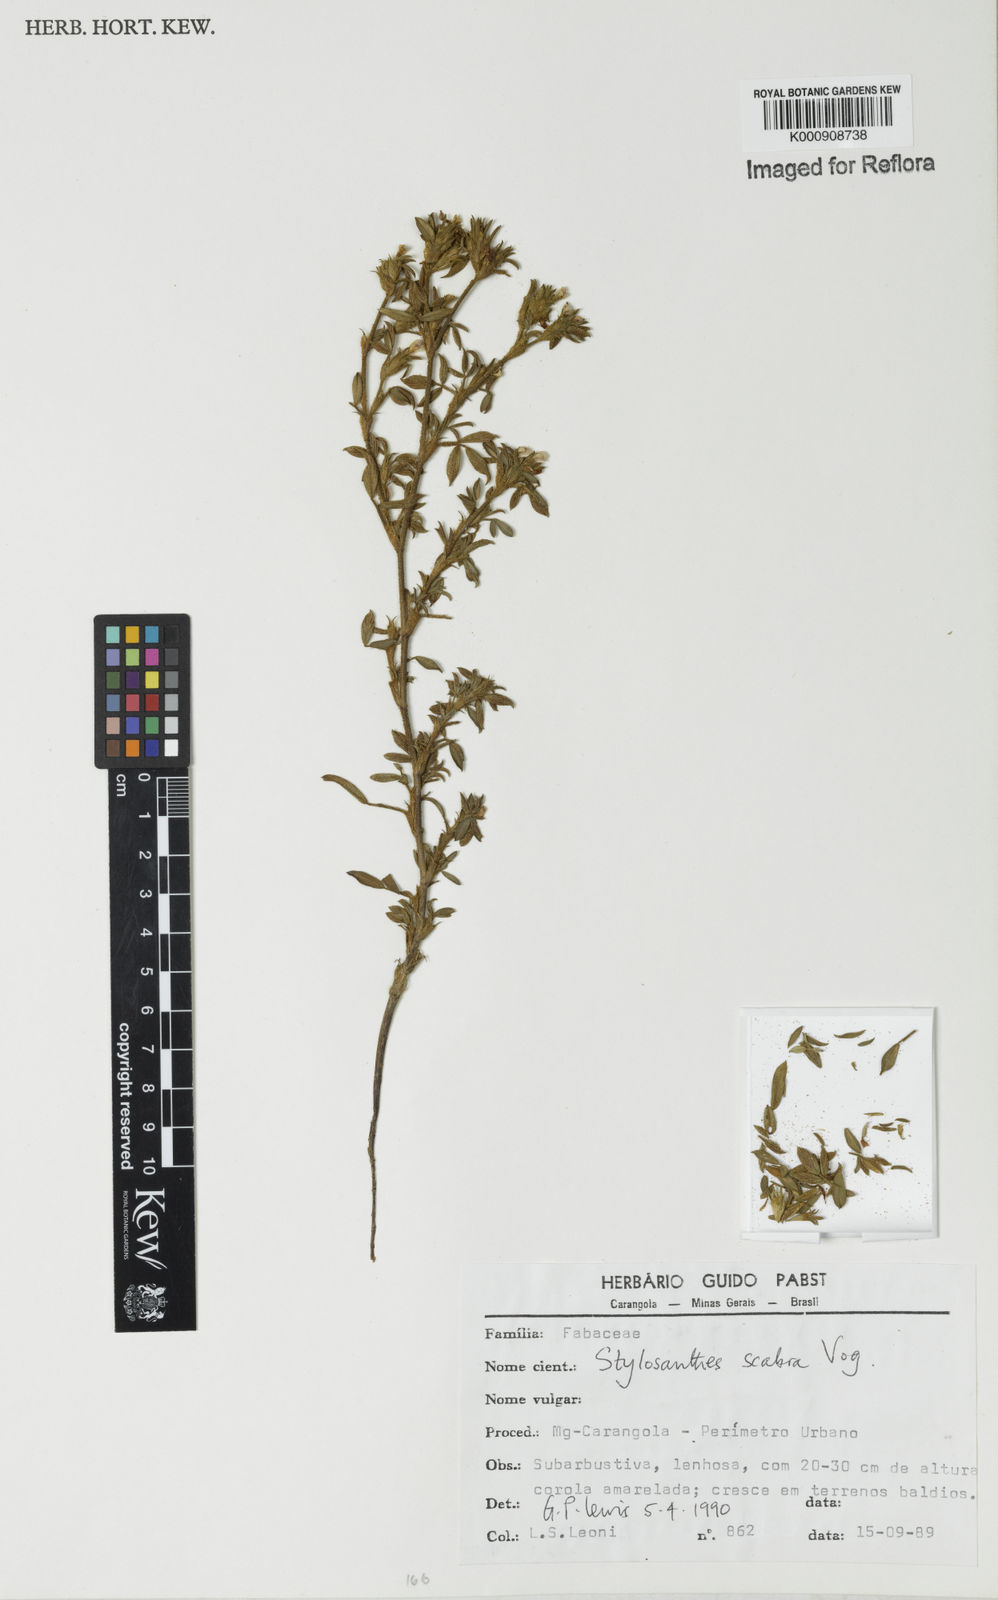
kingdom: Plantae
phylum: Tracheophyta
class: Magnoliopsida
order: Fabales
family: Fabaceae
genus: Stylosanthes
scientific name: Stylosanthes scabra
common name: Pencilflower
